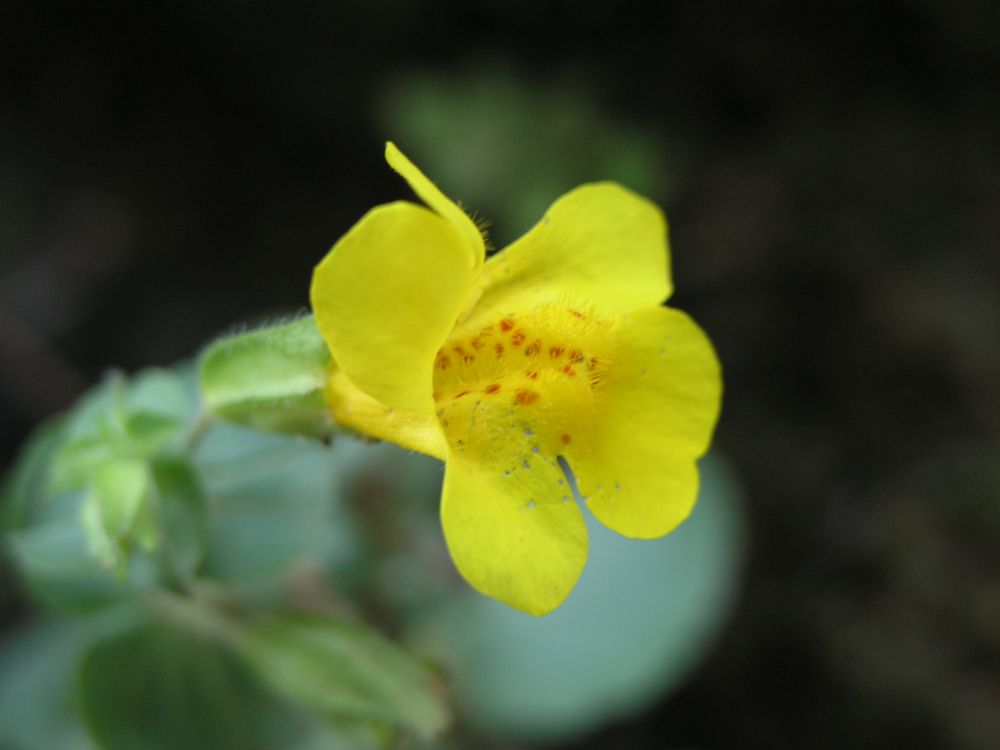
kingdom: Plantae
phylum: Tracheophyta
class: Magnoliopsida
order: Lamiales
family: Phrymaceae
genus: Erythranthe
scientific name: Erythranthe alsinoides
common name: Chickweed monkeyflower
